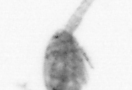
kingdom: Animalia
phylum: Arthropoda
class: Copepoda
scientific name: Copepoda
